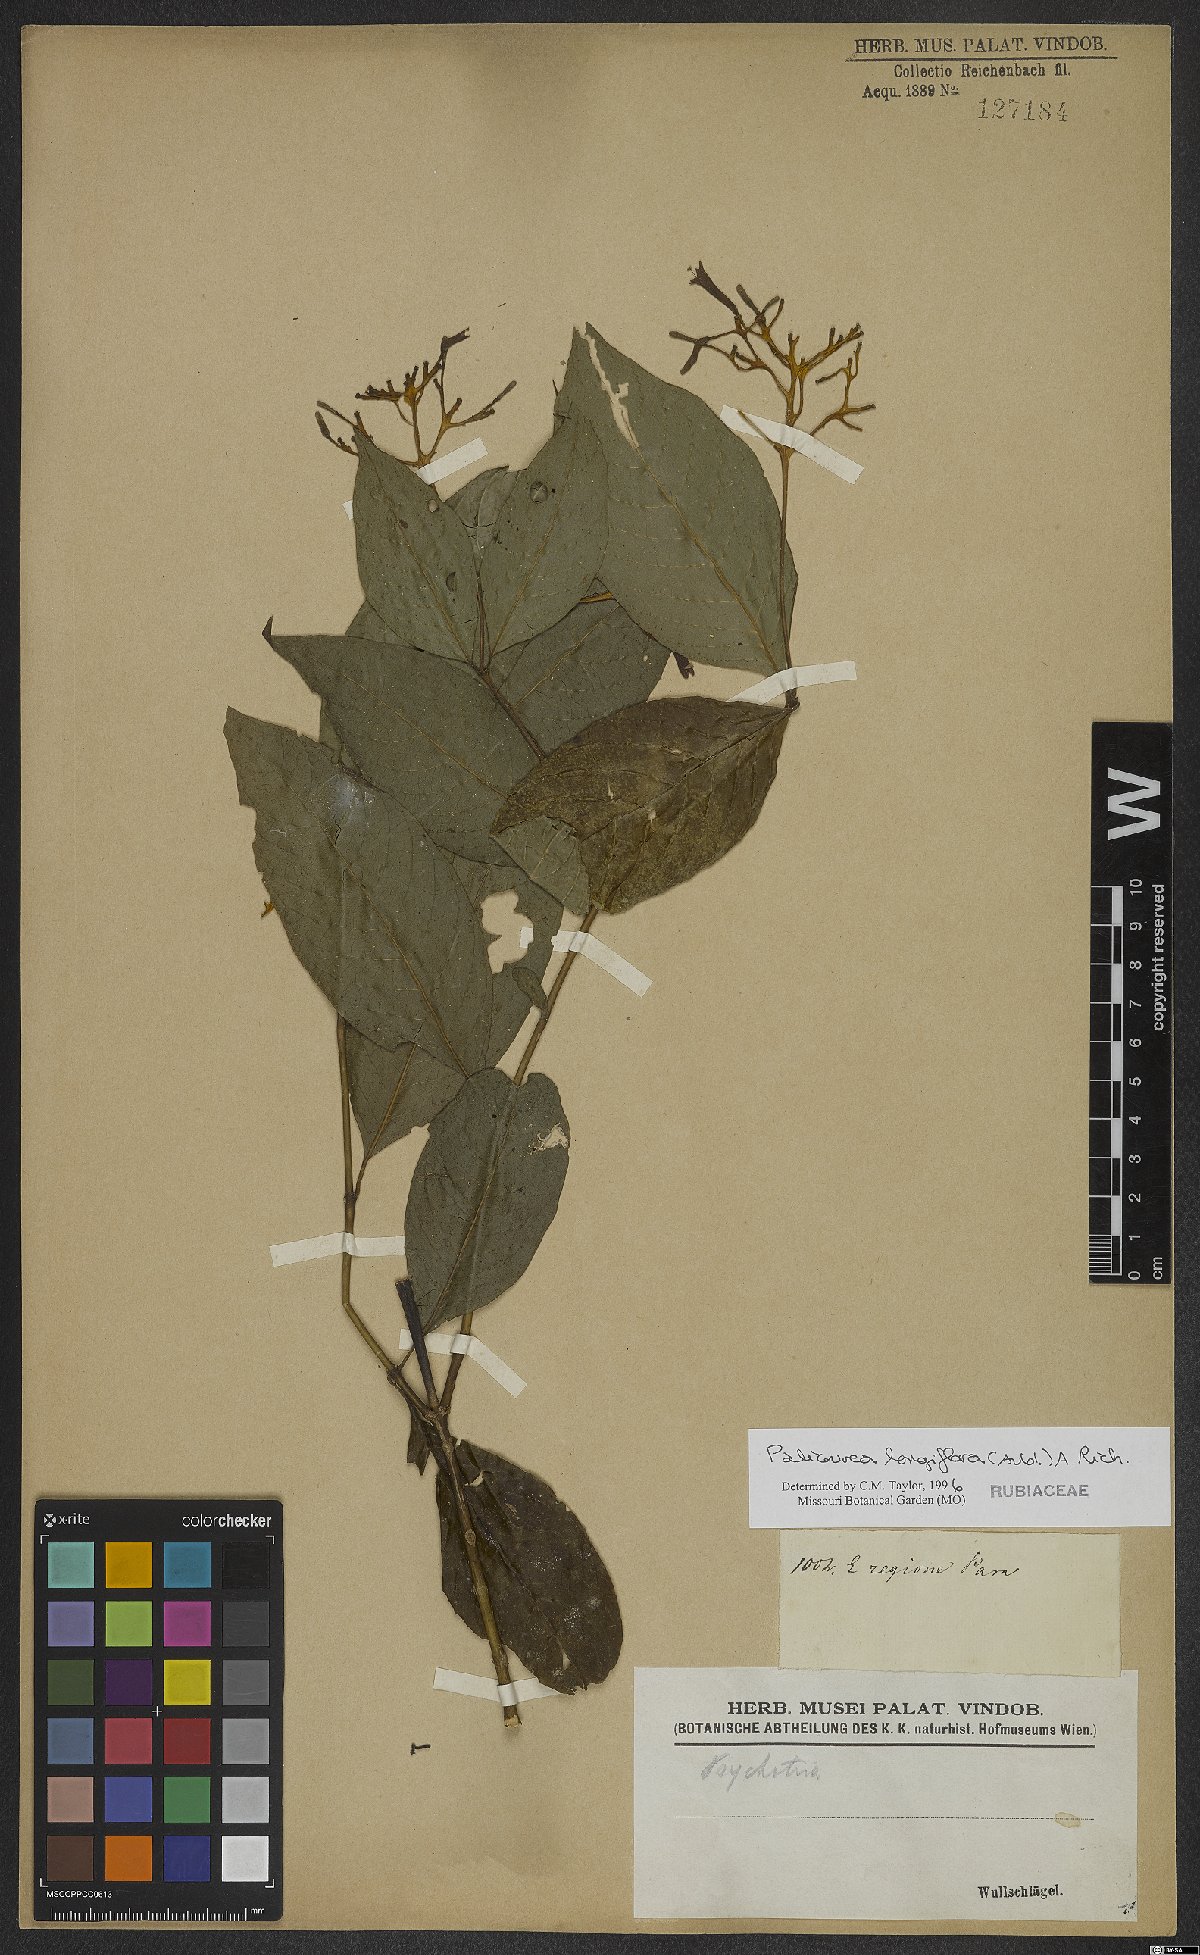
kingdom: Plantae
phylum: Tracheophyta
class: Magnoliopsida
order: Gentianales
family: Rubiaceae
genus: Palicourea
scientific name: Palicourea longiflora
